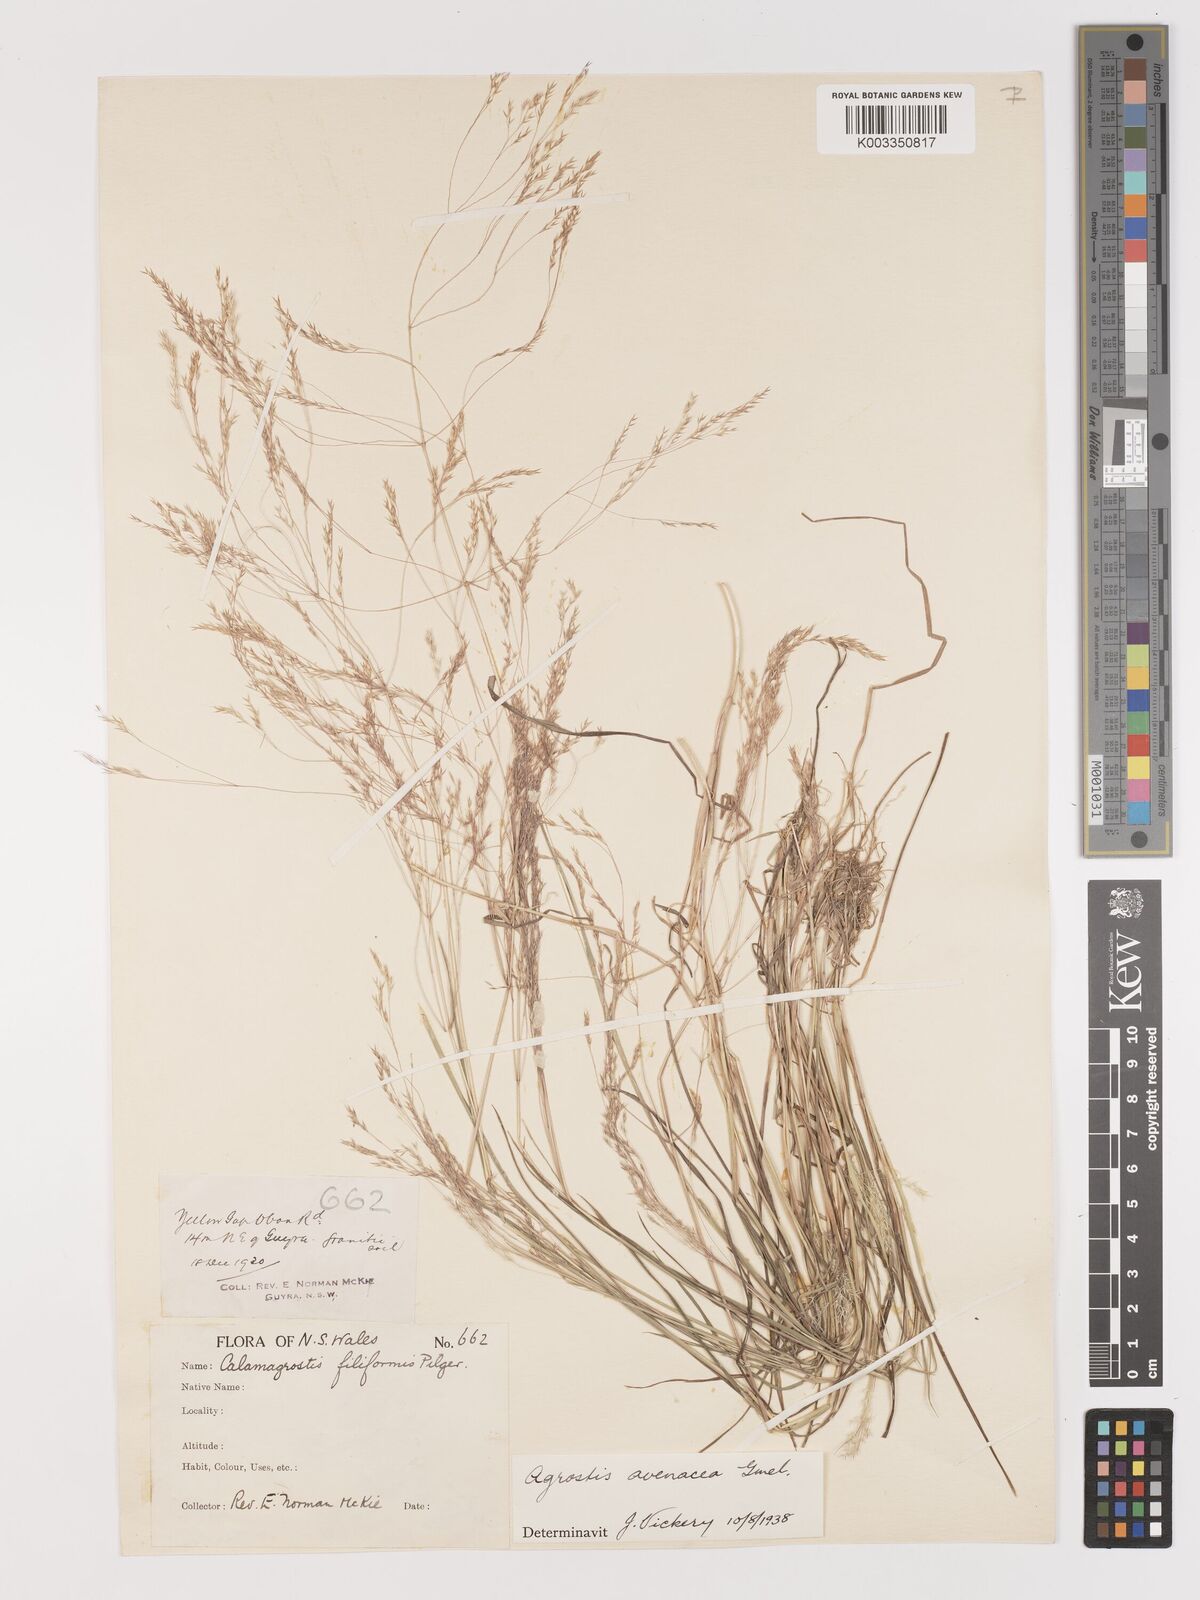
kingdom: Plantae
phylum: Tracheophyta
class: Liliopsida
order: Poales
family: Poaceae
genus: Lachnagrostis
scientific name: Lachnagrostis filiformis
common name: Bentgrass
